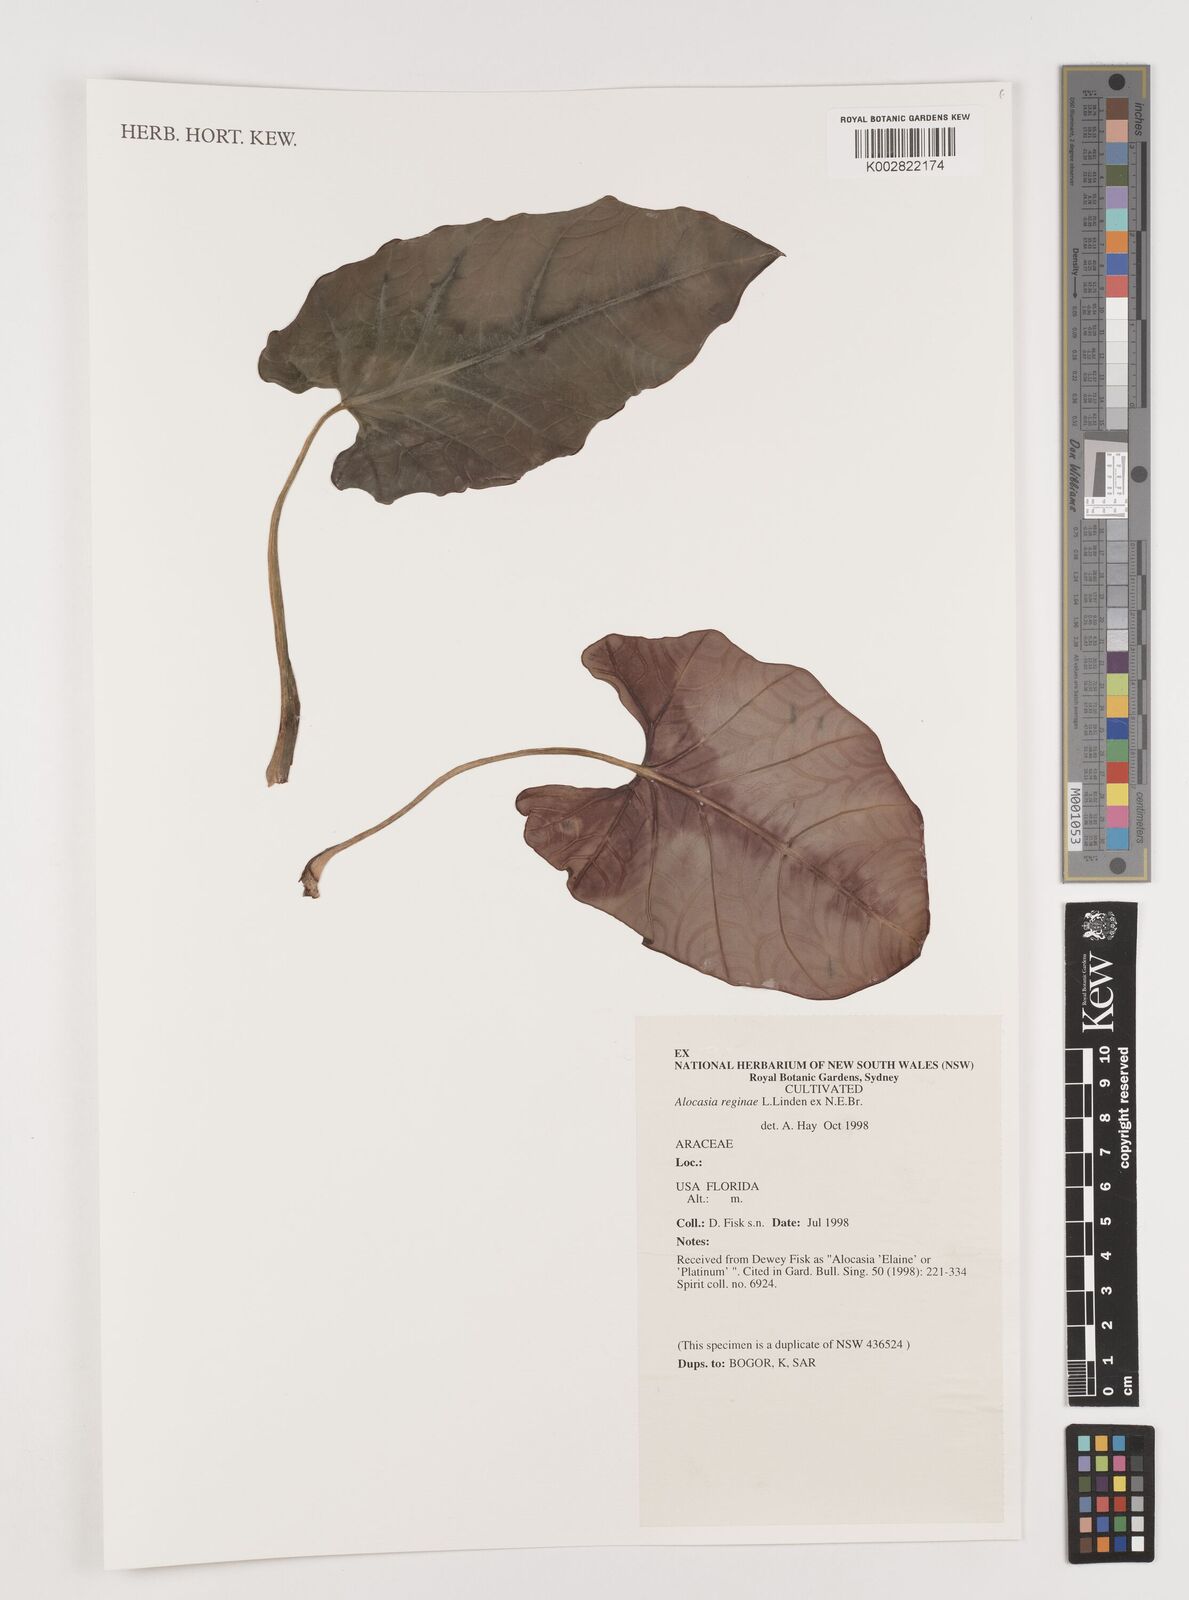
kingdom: Plantae
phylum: Tracheophyta
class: Liliopsida
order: Alismatales
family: Araceae
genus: Alocasia
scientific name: Alocasia reginae
